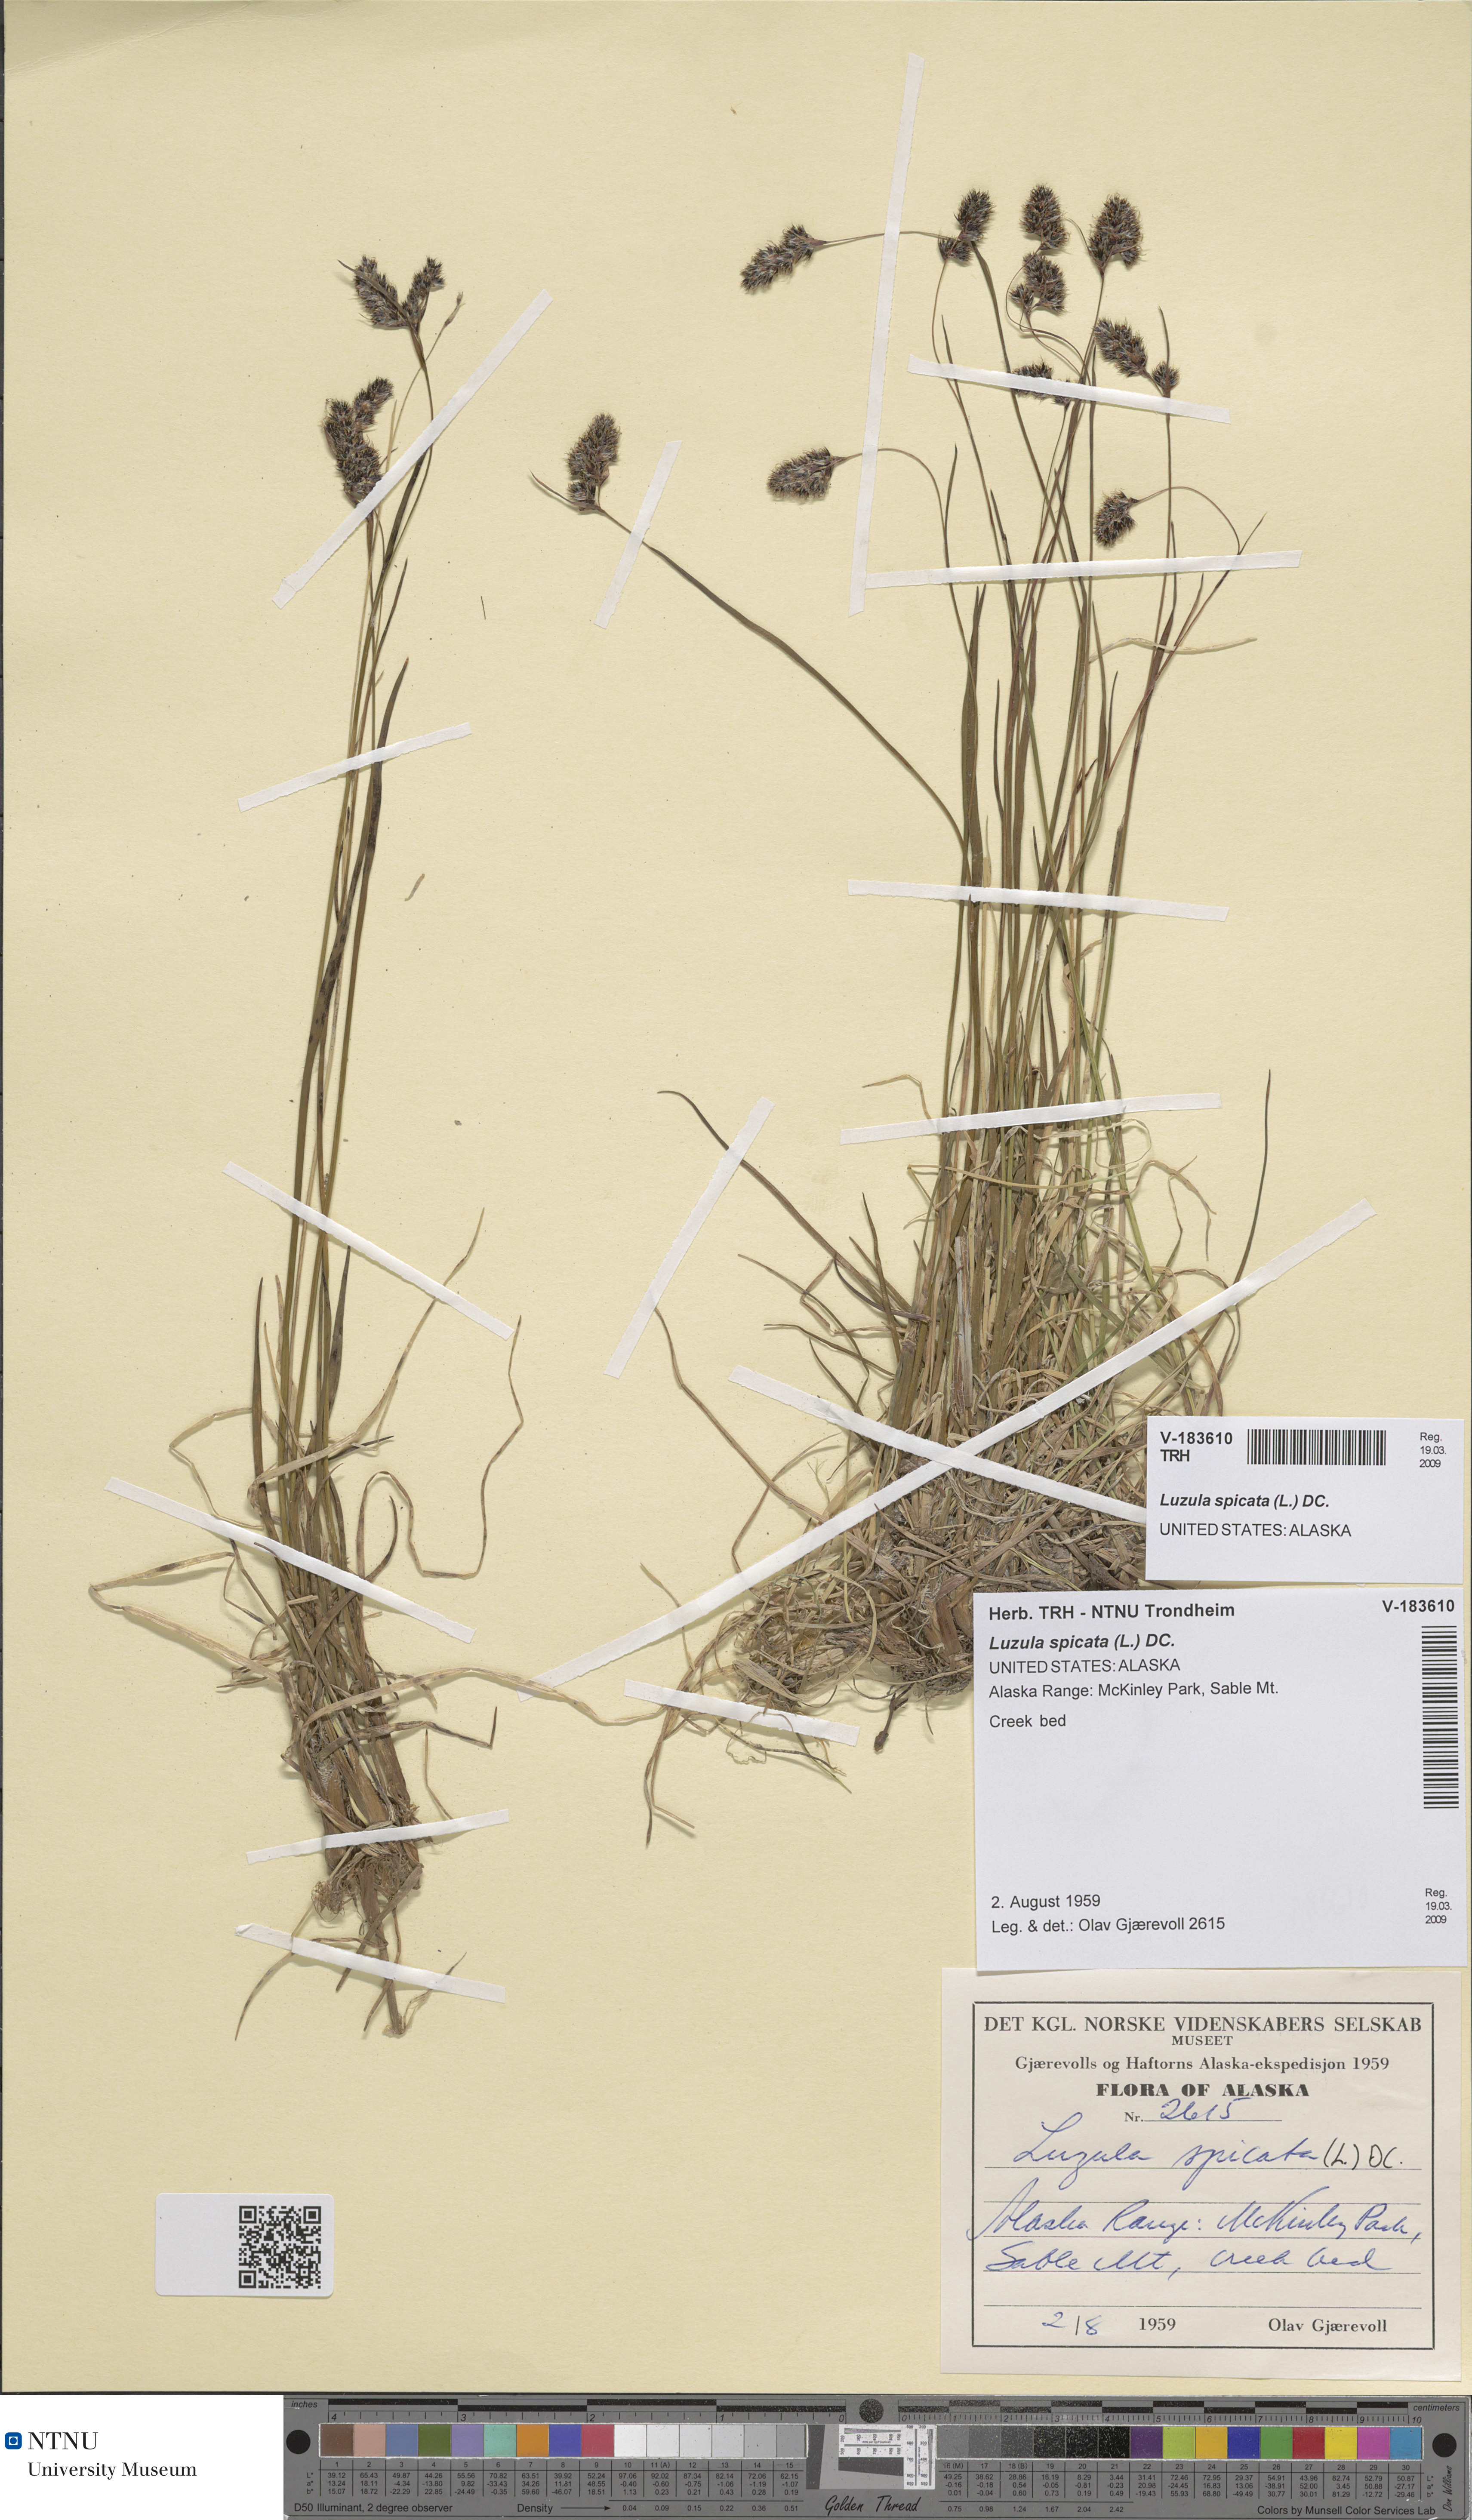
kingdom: Plantae
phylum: Tracheophyta
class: Liliopsida
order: Poales
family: Juncaceae
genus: Luzula
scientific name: Luzula spicata
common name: Spiked wood-rush
